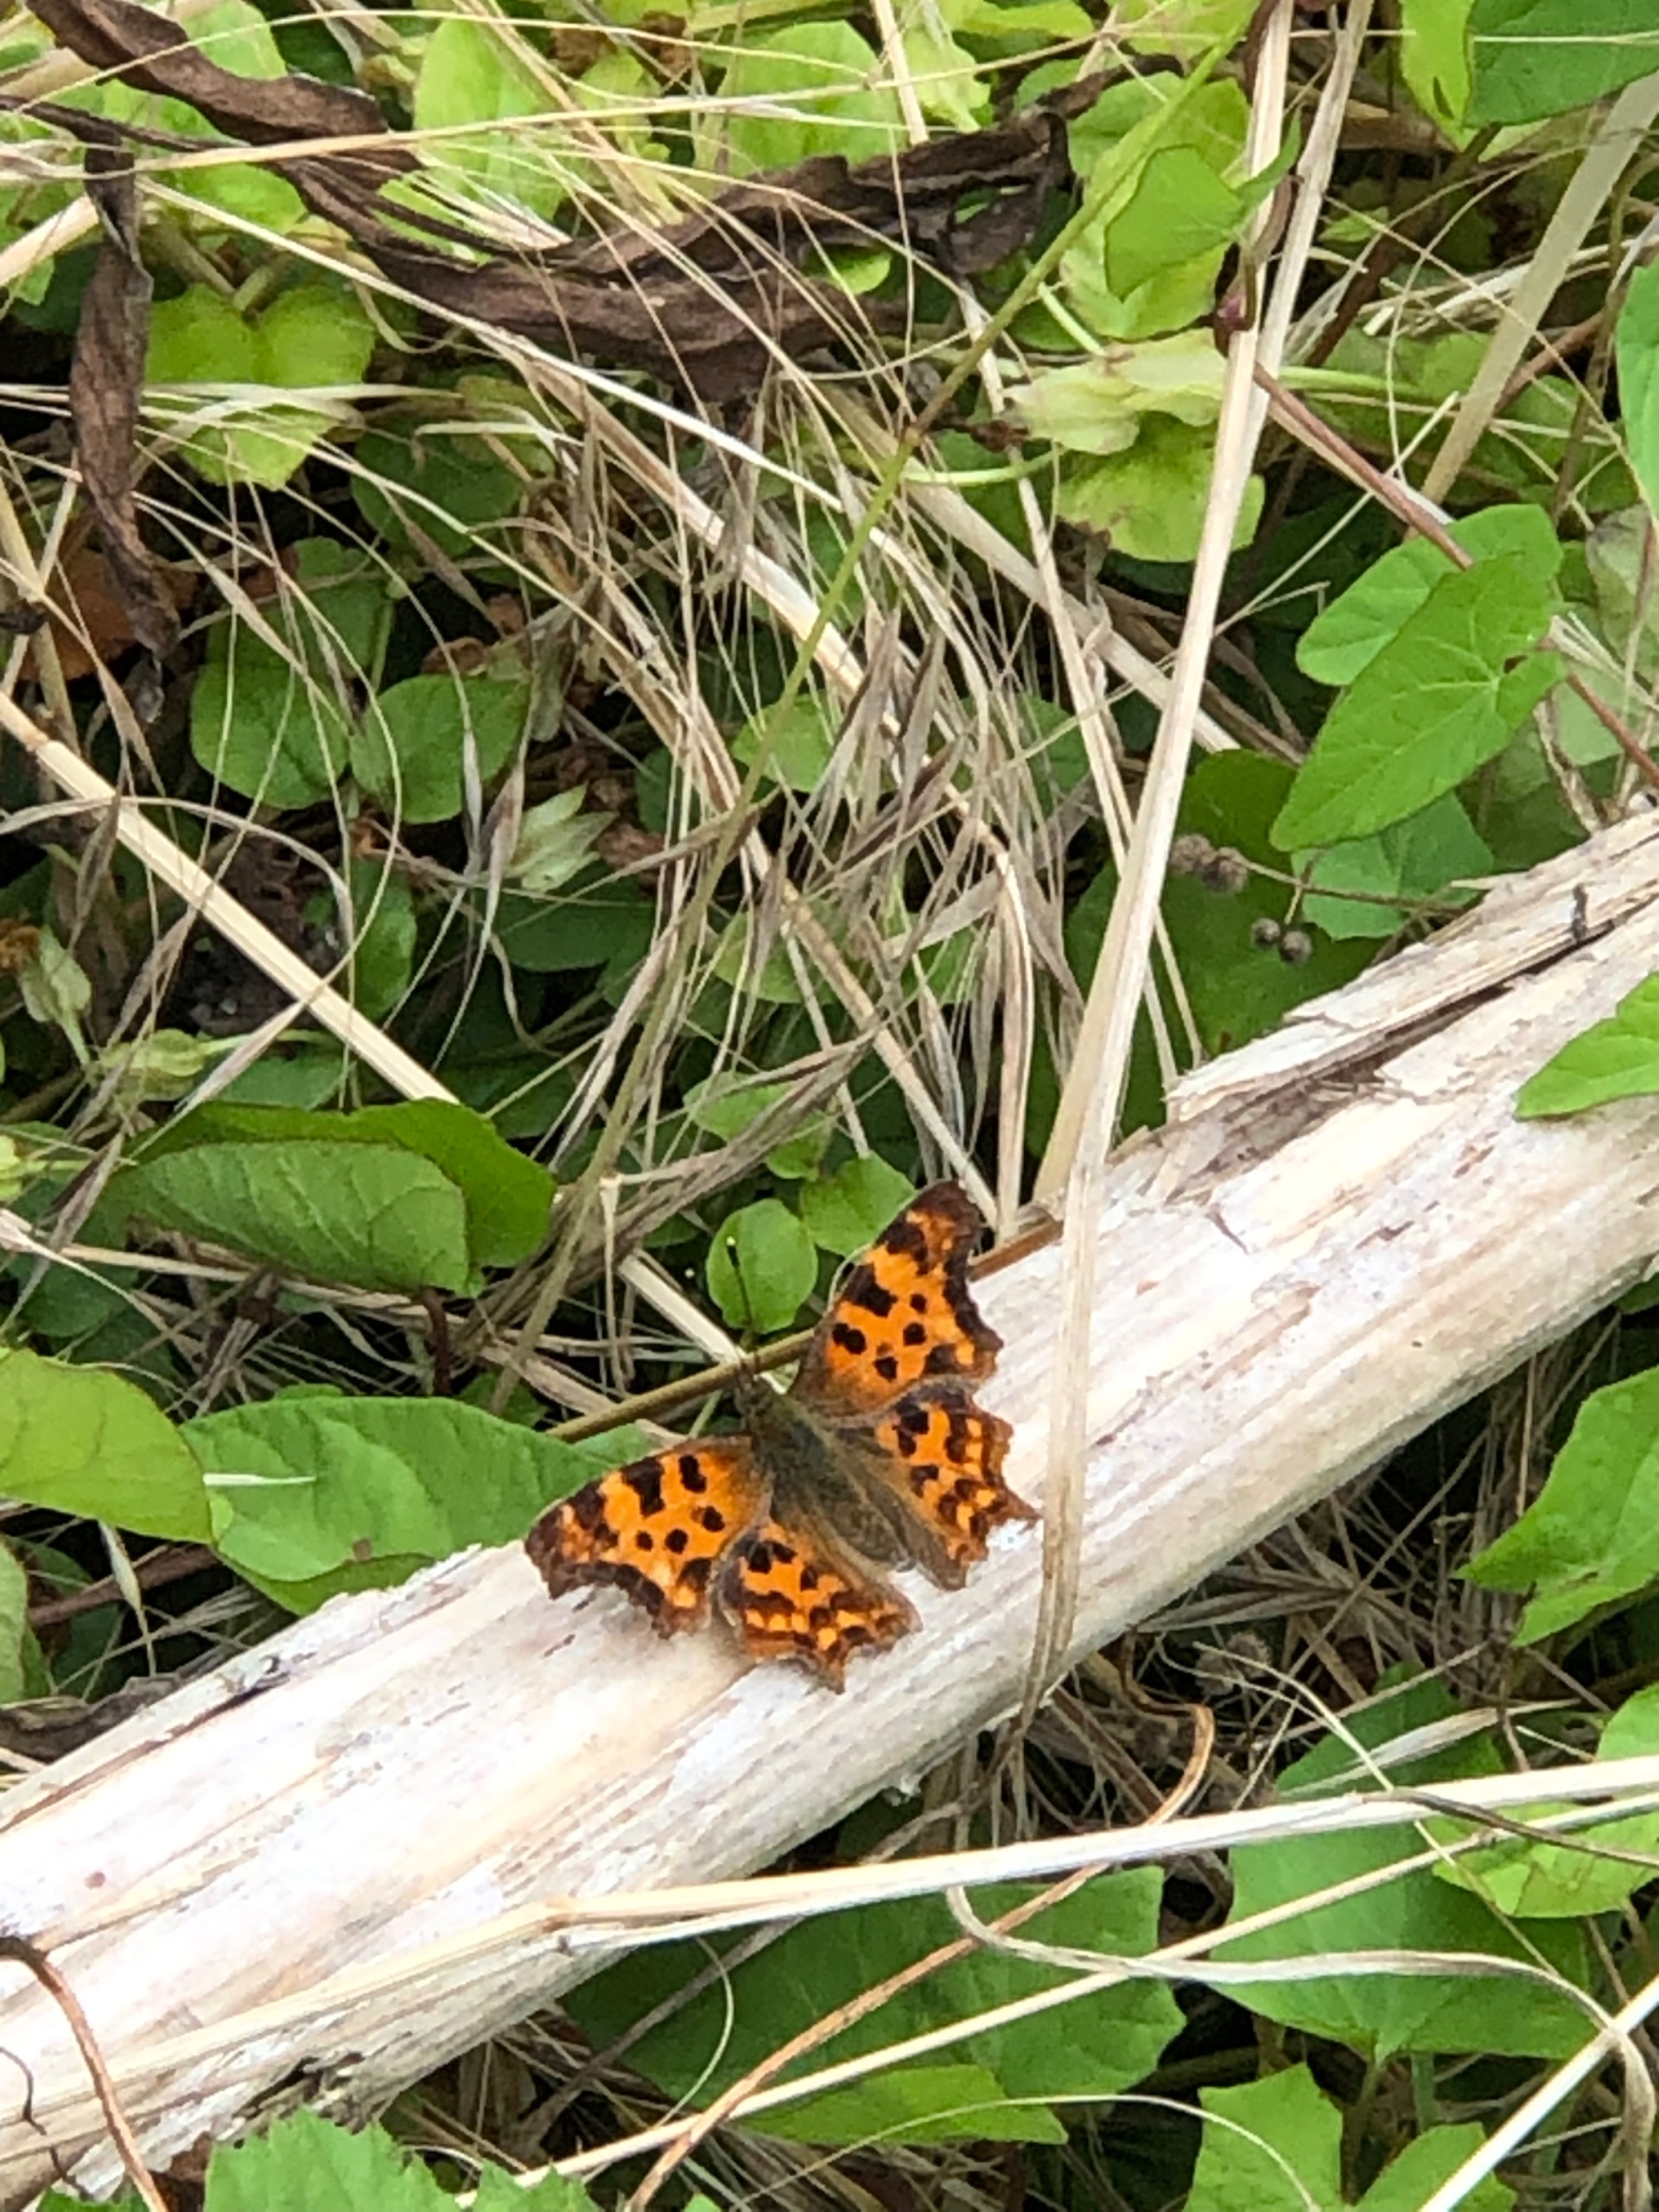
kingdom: Animalia
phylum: Arthropoda
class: Insecta
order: Lepidoptera
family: Nymphalidae
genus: Polygonia
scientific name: Polygonia c-album
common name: Det hvide C
